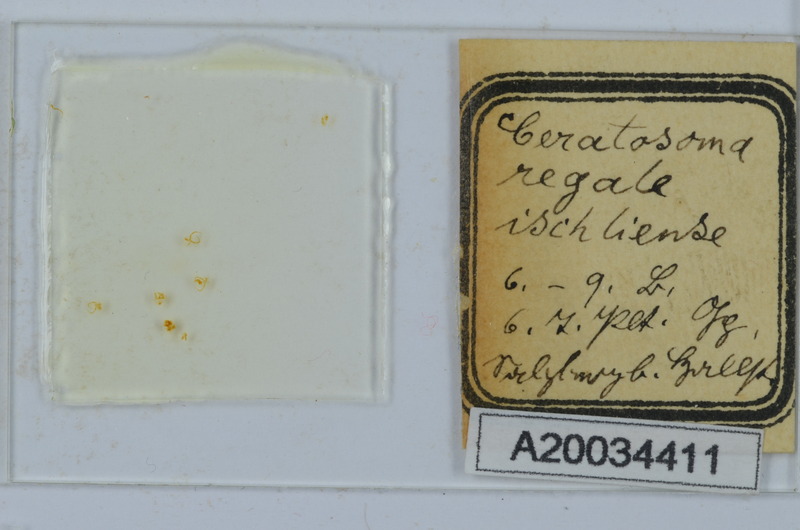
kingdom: Animalia
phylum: Arthropoda
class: Diplopoda
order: Chordeumatida
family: Craspedosomatidae
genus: Euceratosoma
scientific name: Euceratosoma regale
